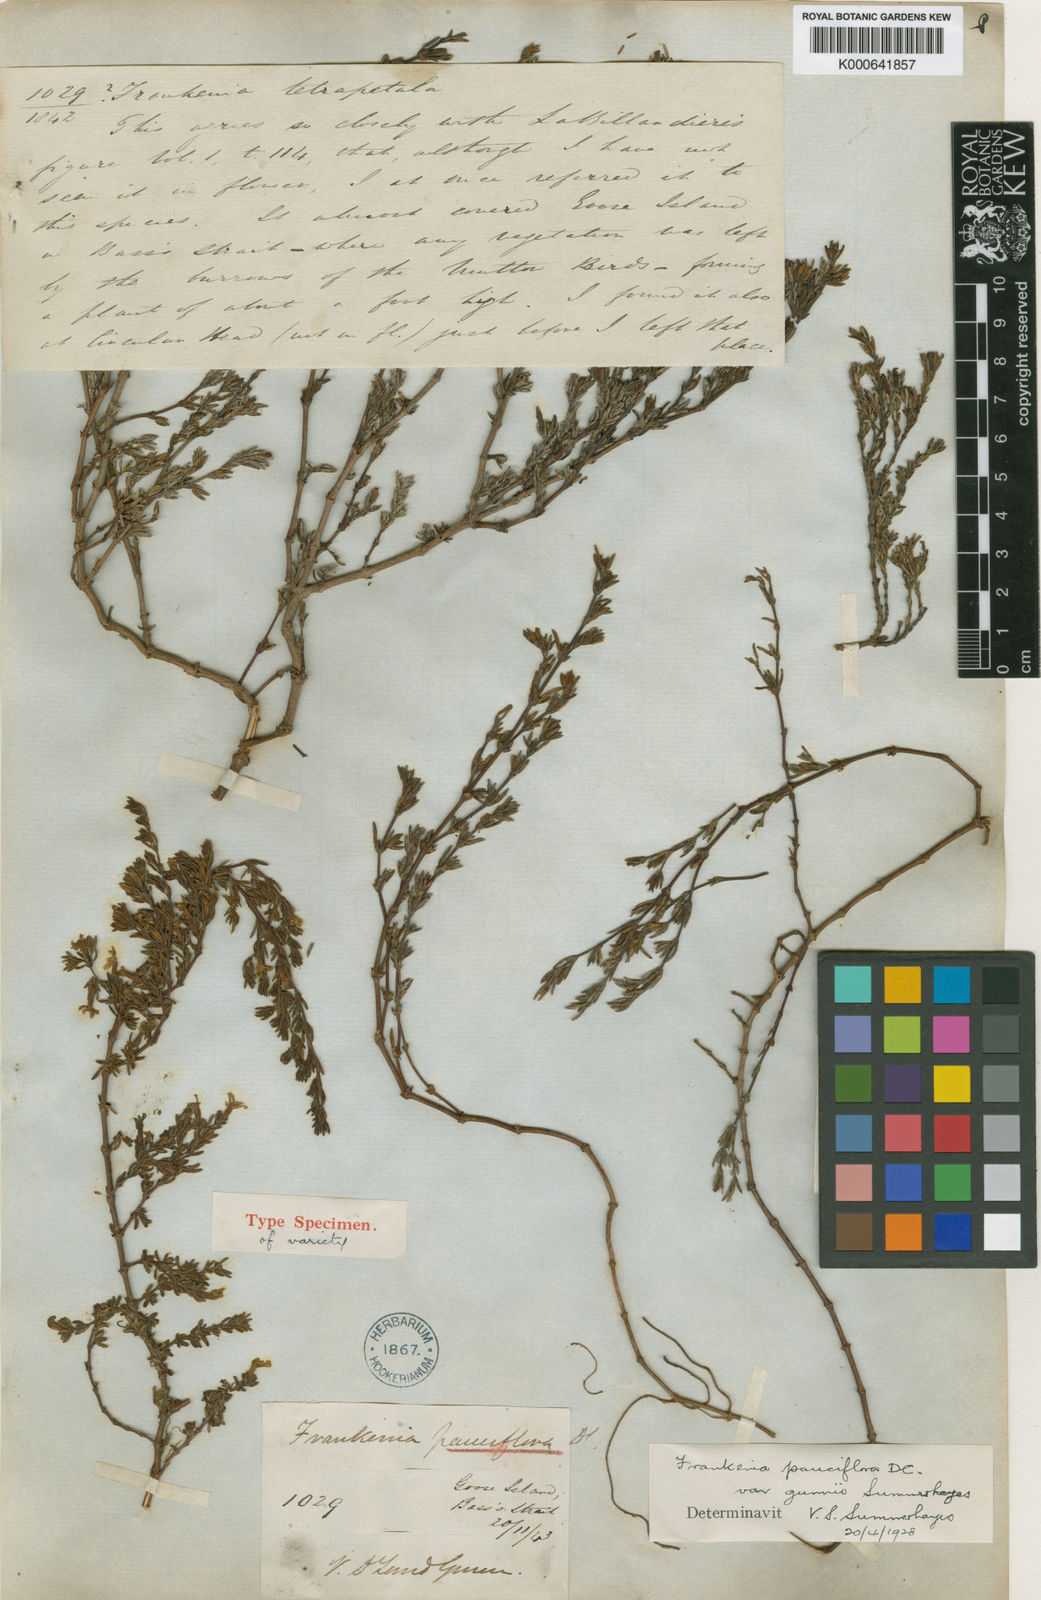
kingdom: Plantae
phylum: Tracheophyta
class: Magnoliopsida
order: Caryophyllales
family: Frankeniaceae
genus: Frankenia
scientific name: Frankenia pauciflora
